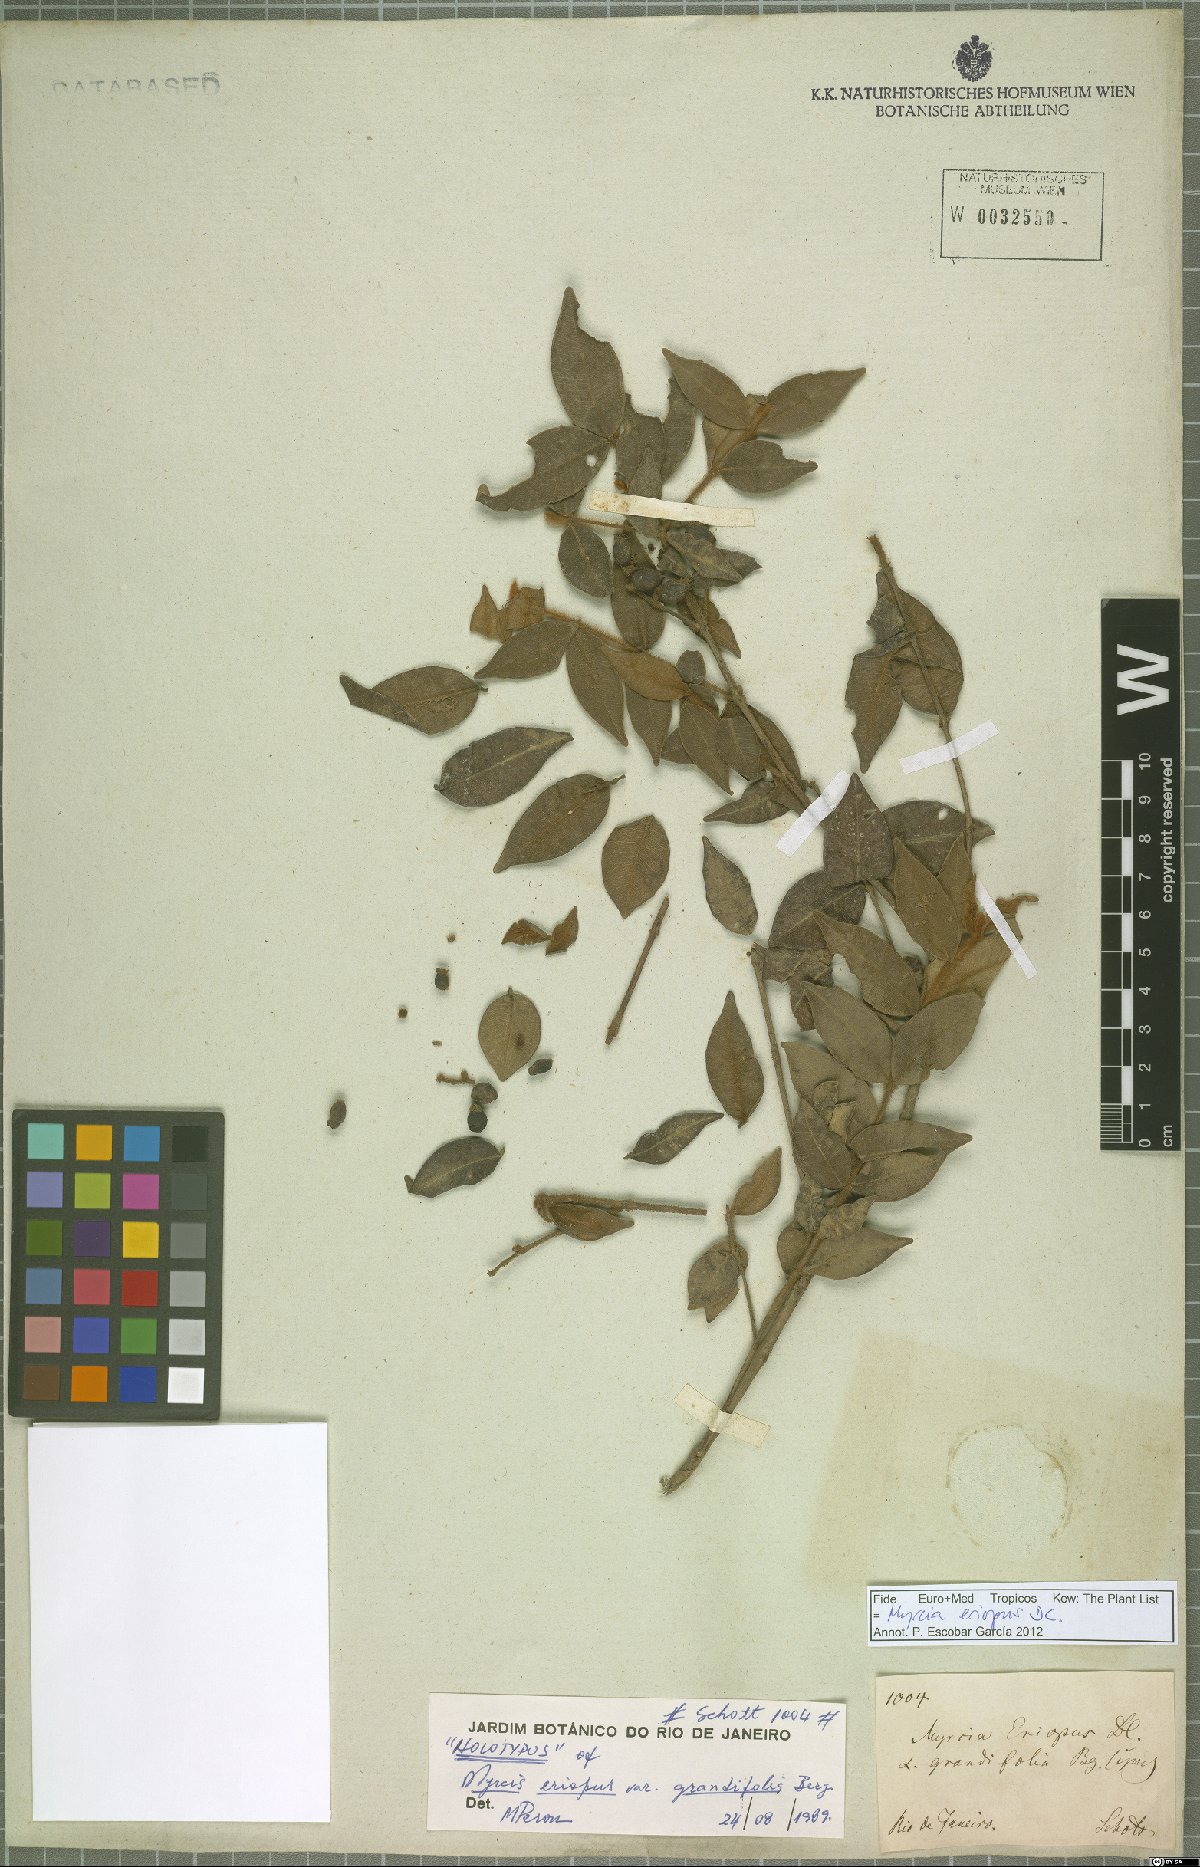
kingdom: Plantae
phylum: Tracheophyta
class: Magnoliopsida
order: Myrtales
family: Myrtaceae
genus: Myrcia
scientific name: Myrcia eriopus
